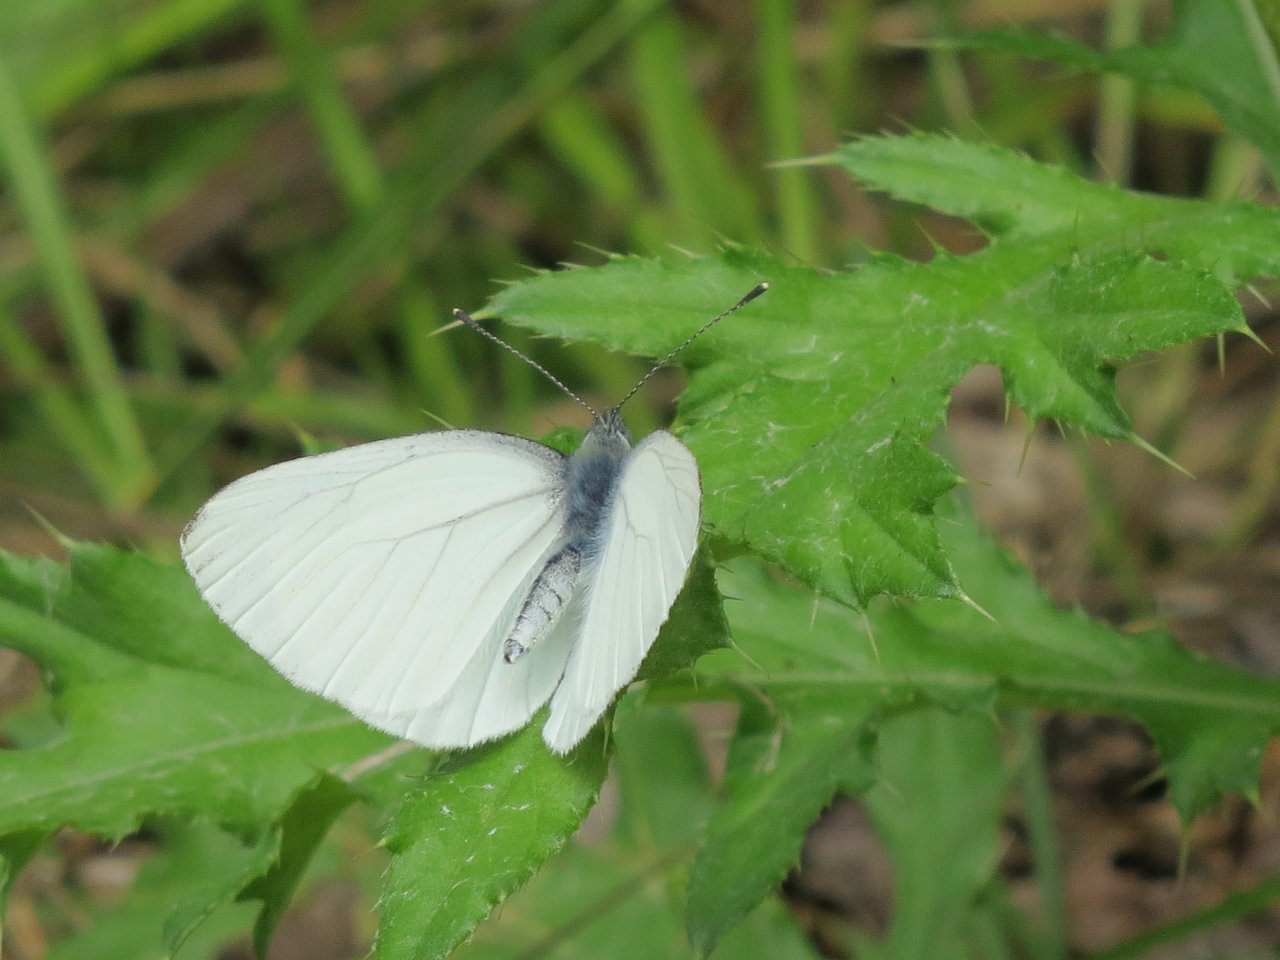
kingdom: Animalia
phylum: Arthropoda
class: Insecta
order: Lepidoptera
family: Pieridae
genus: Pieris
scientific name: Pieris oleracea
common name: Mustard White
